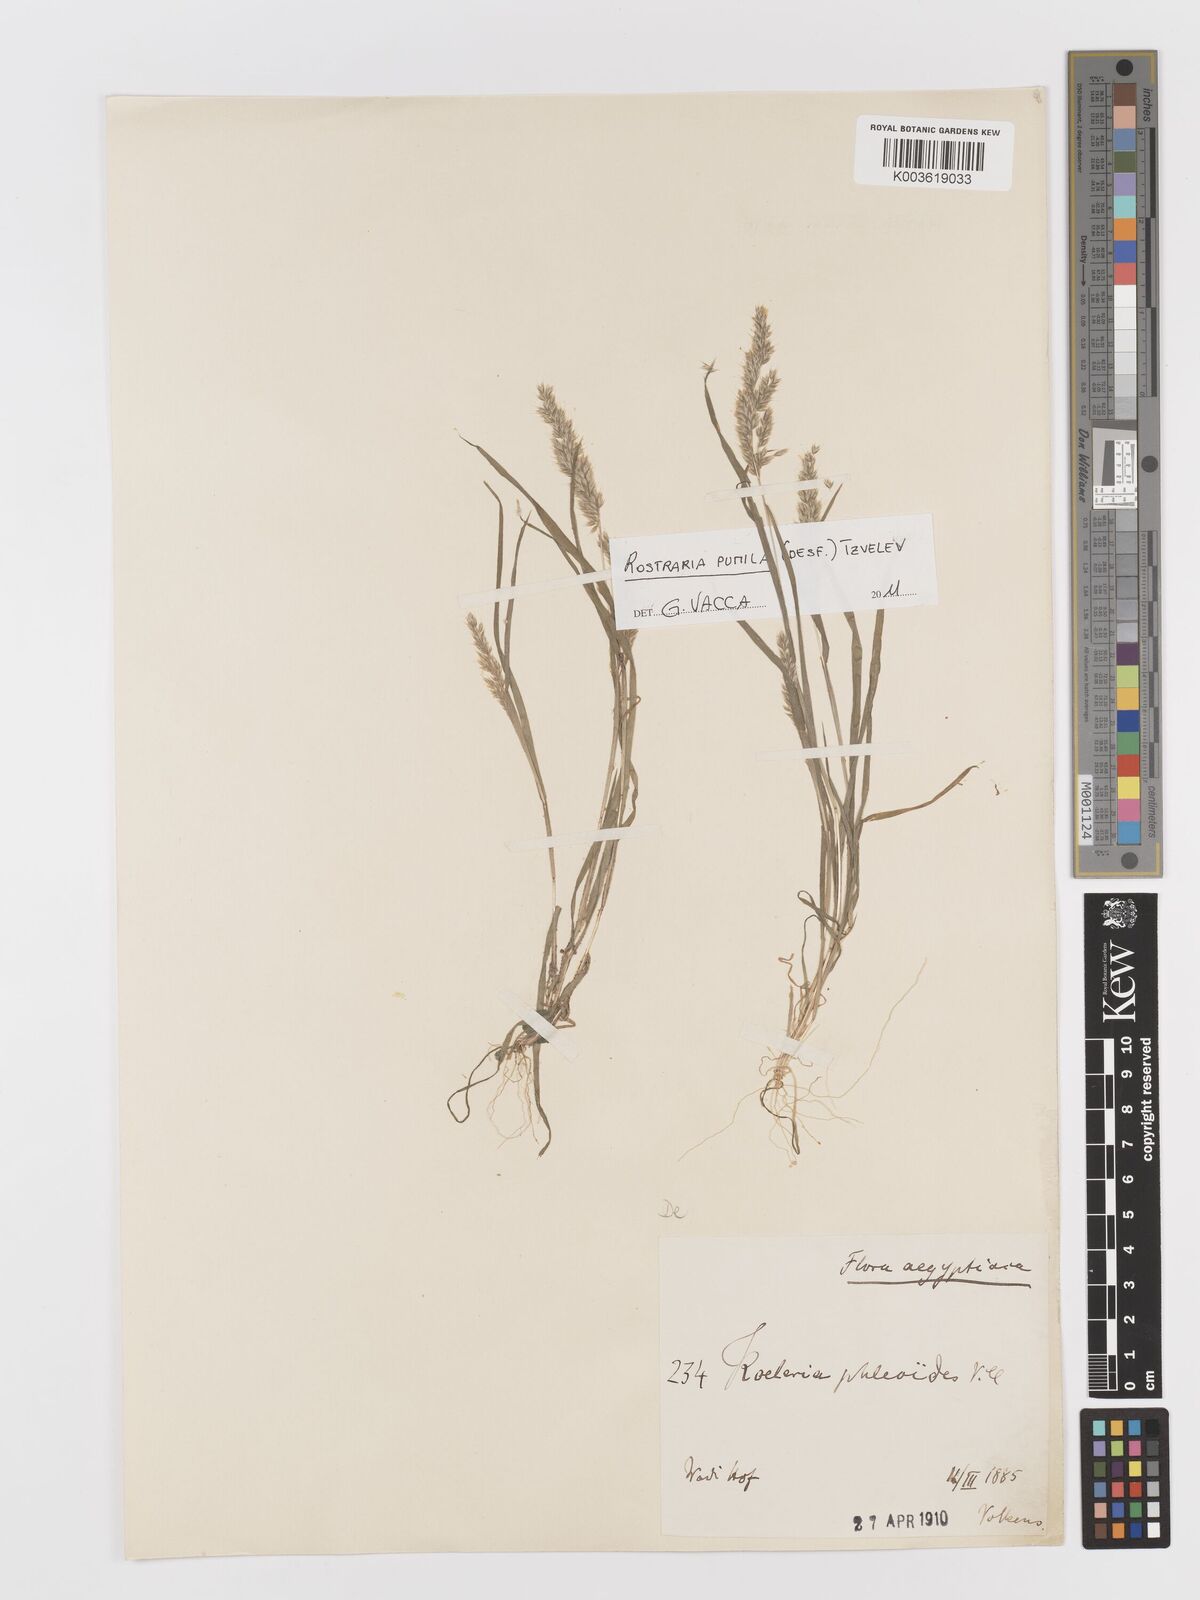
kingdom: Plantae
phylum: Tracheophyta
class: Liliopsida
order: Poales
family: Poaceae
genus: Rostraria
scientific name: Rostraria cristata
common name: Mediterranean hair-grass
